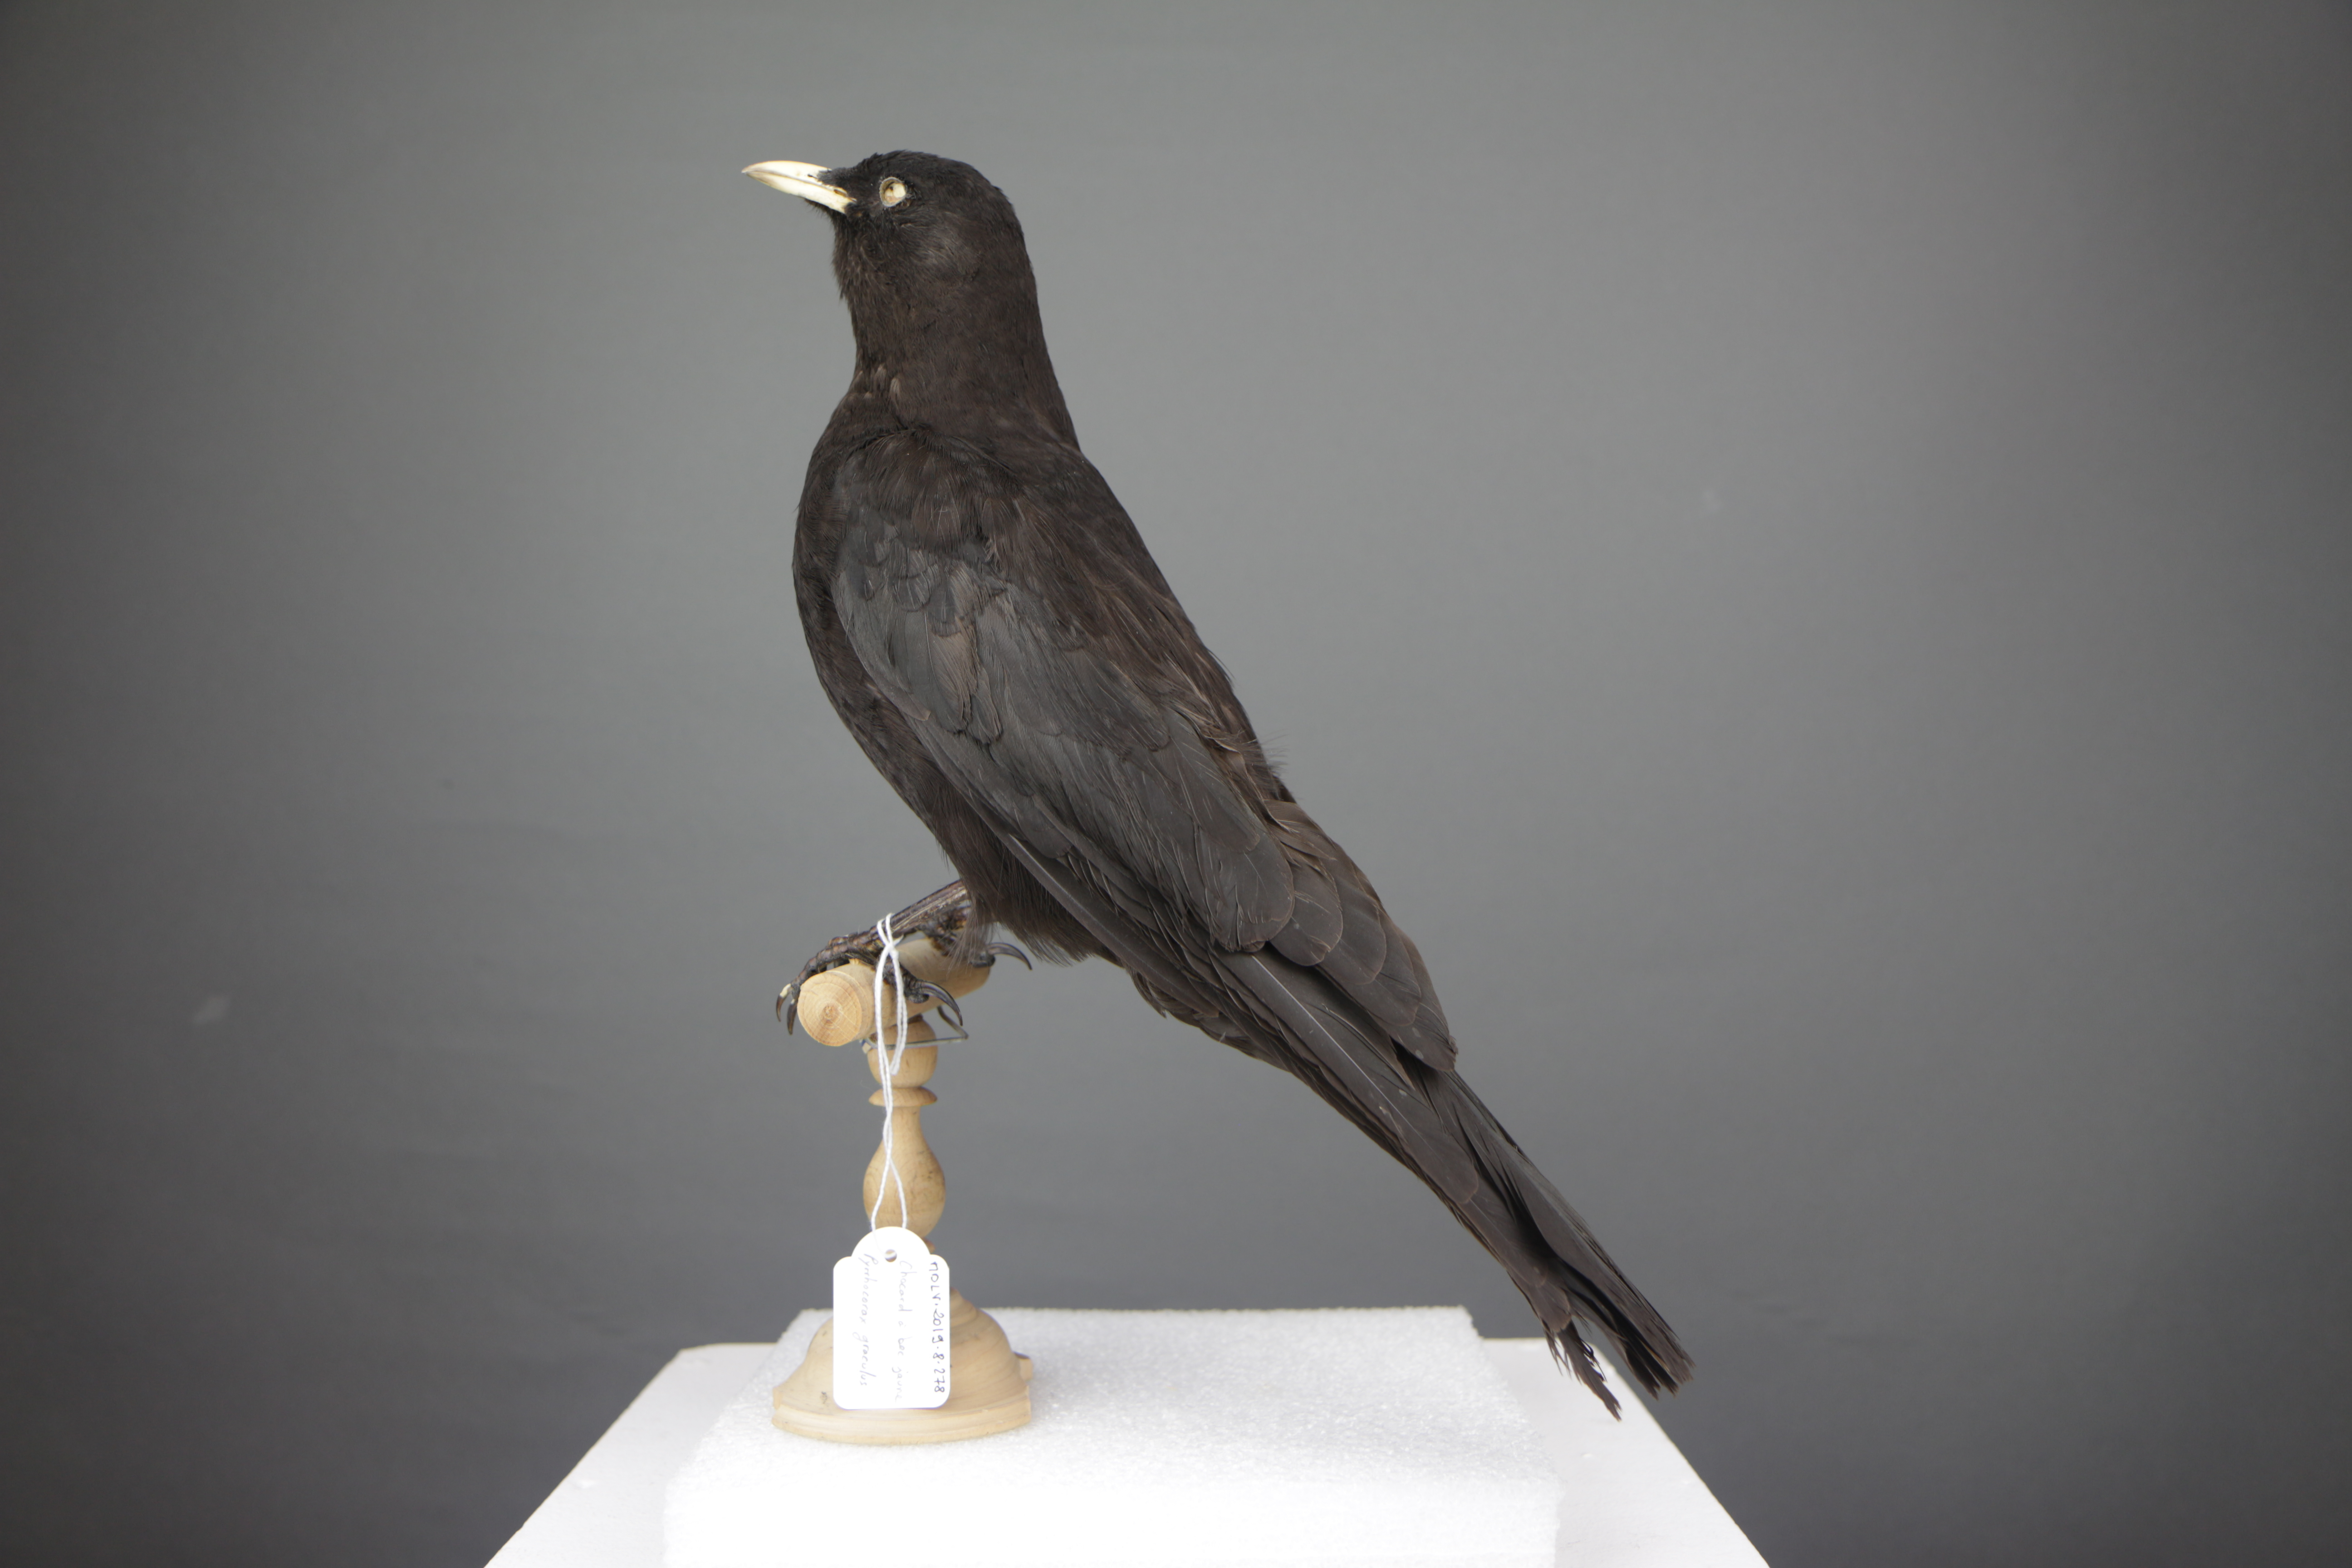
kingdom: Animalia
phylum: Chordata
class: Aves
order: Passeriformes
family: Corvidae
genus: Pyrrhocorax
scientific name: Pyrrhocorax graculus
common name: Alpine chough
